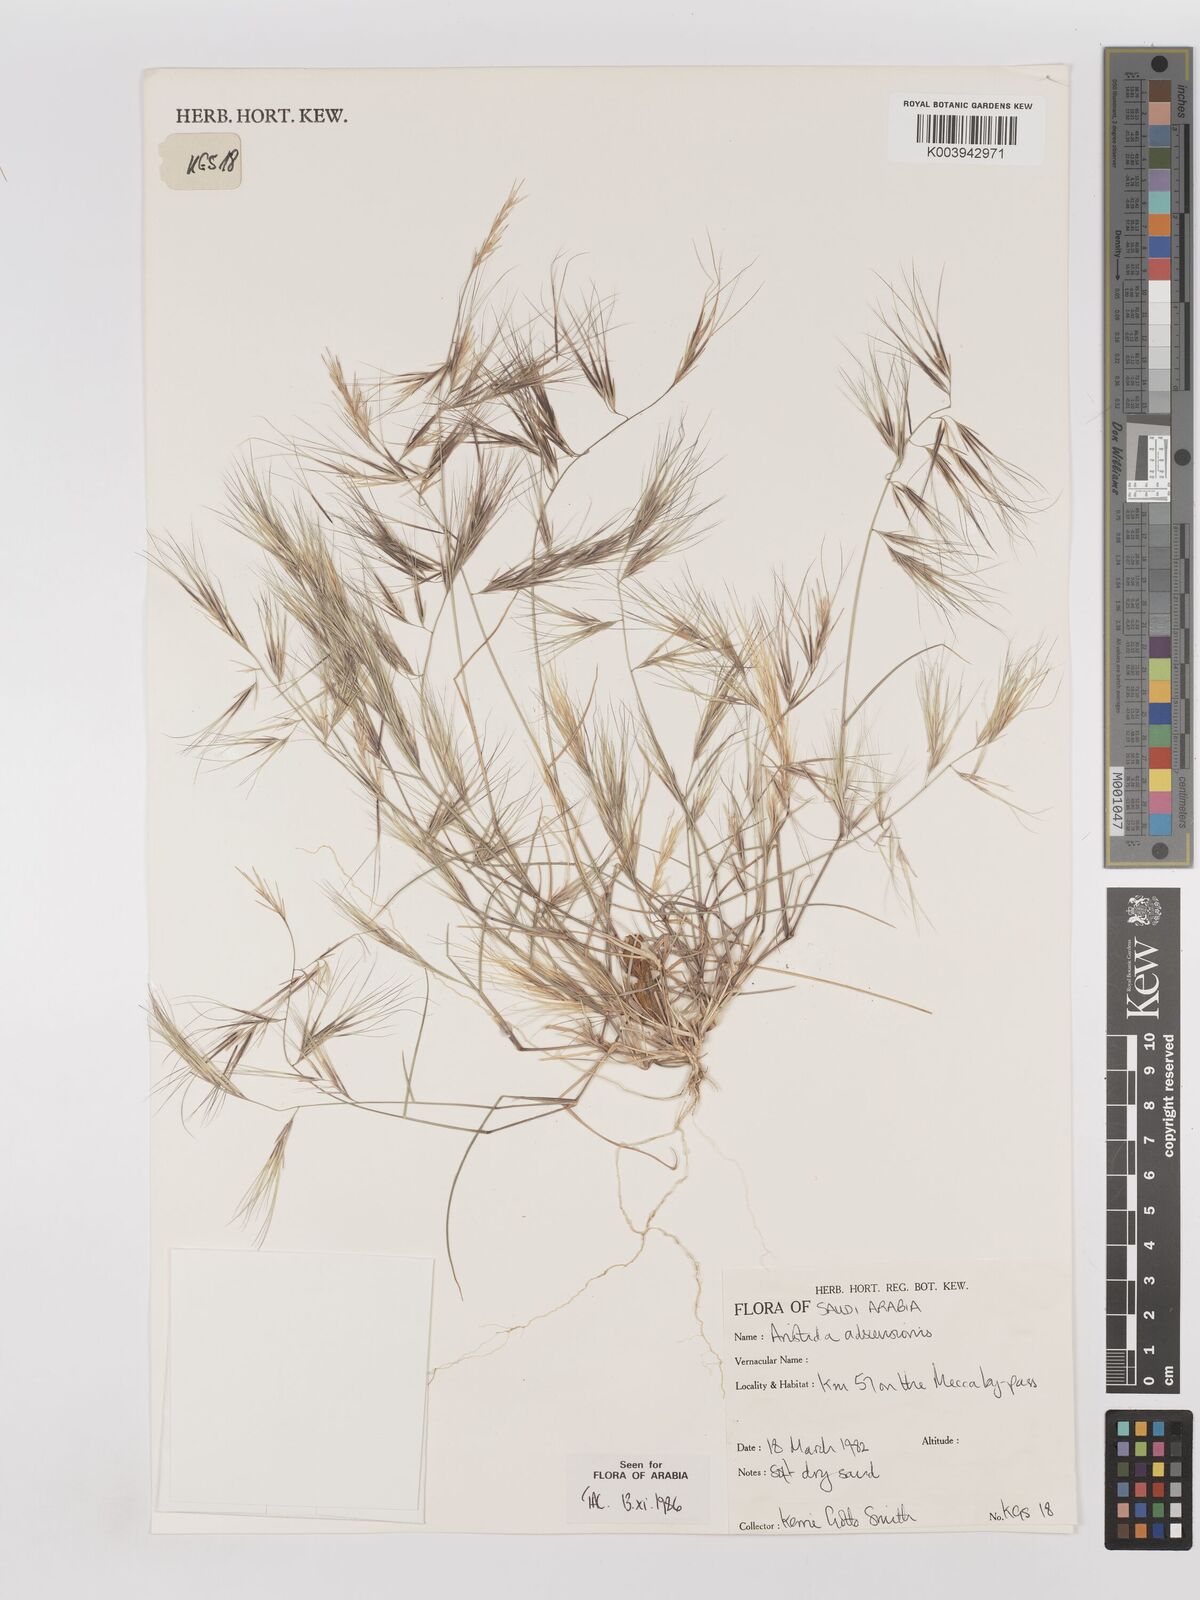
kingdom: Plantae
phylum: Tracheophyta
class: Liliopsida
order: Poales
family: Poaceae
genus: Aristida
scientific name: Aristida adscensionis
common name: Sixweeks threeawn
